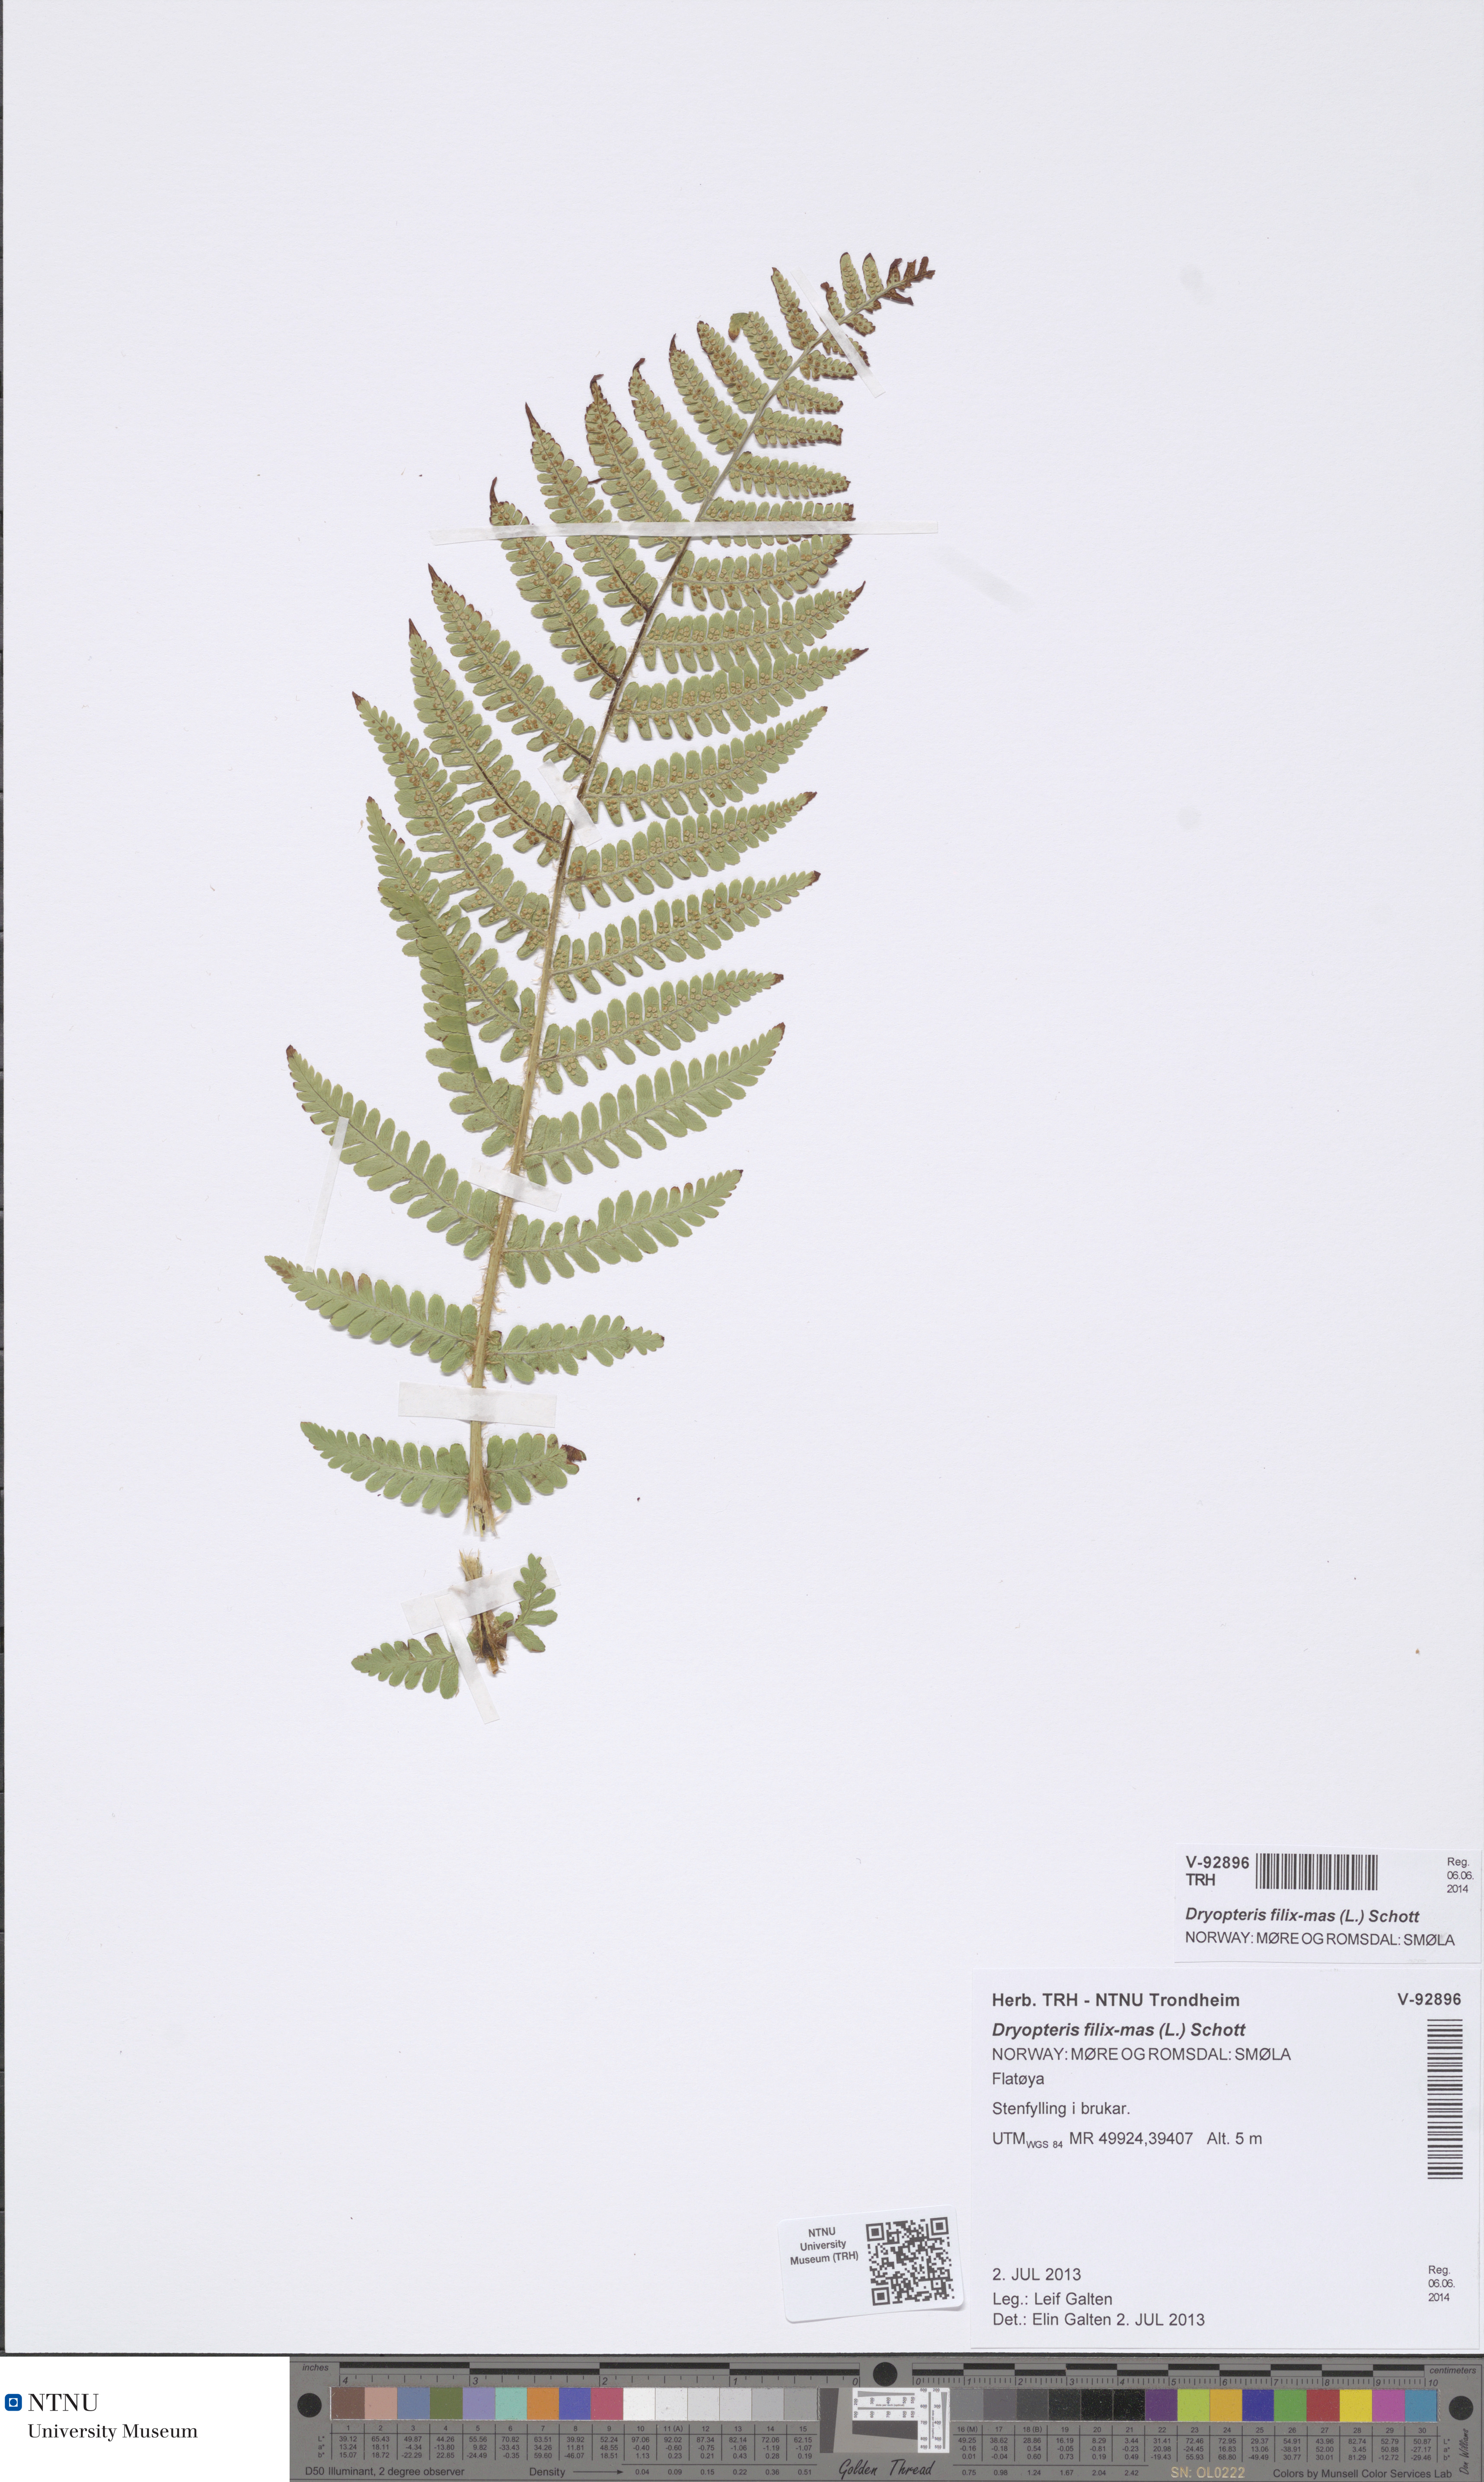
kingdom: Plantae
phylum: Tracheophyta
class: Polypodiopsida
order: Polypodiales
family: Dryopteridaceae
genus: Dryopteris
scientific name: Dryopteris filix-mas
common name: Male fern
